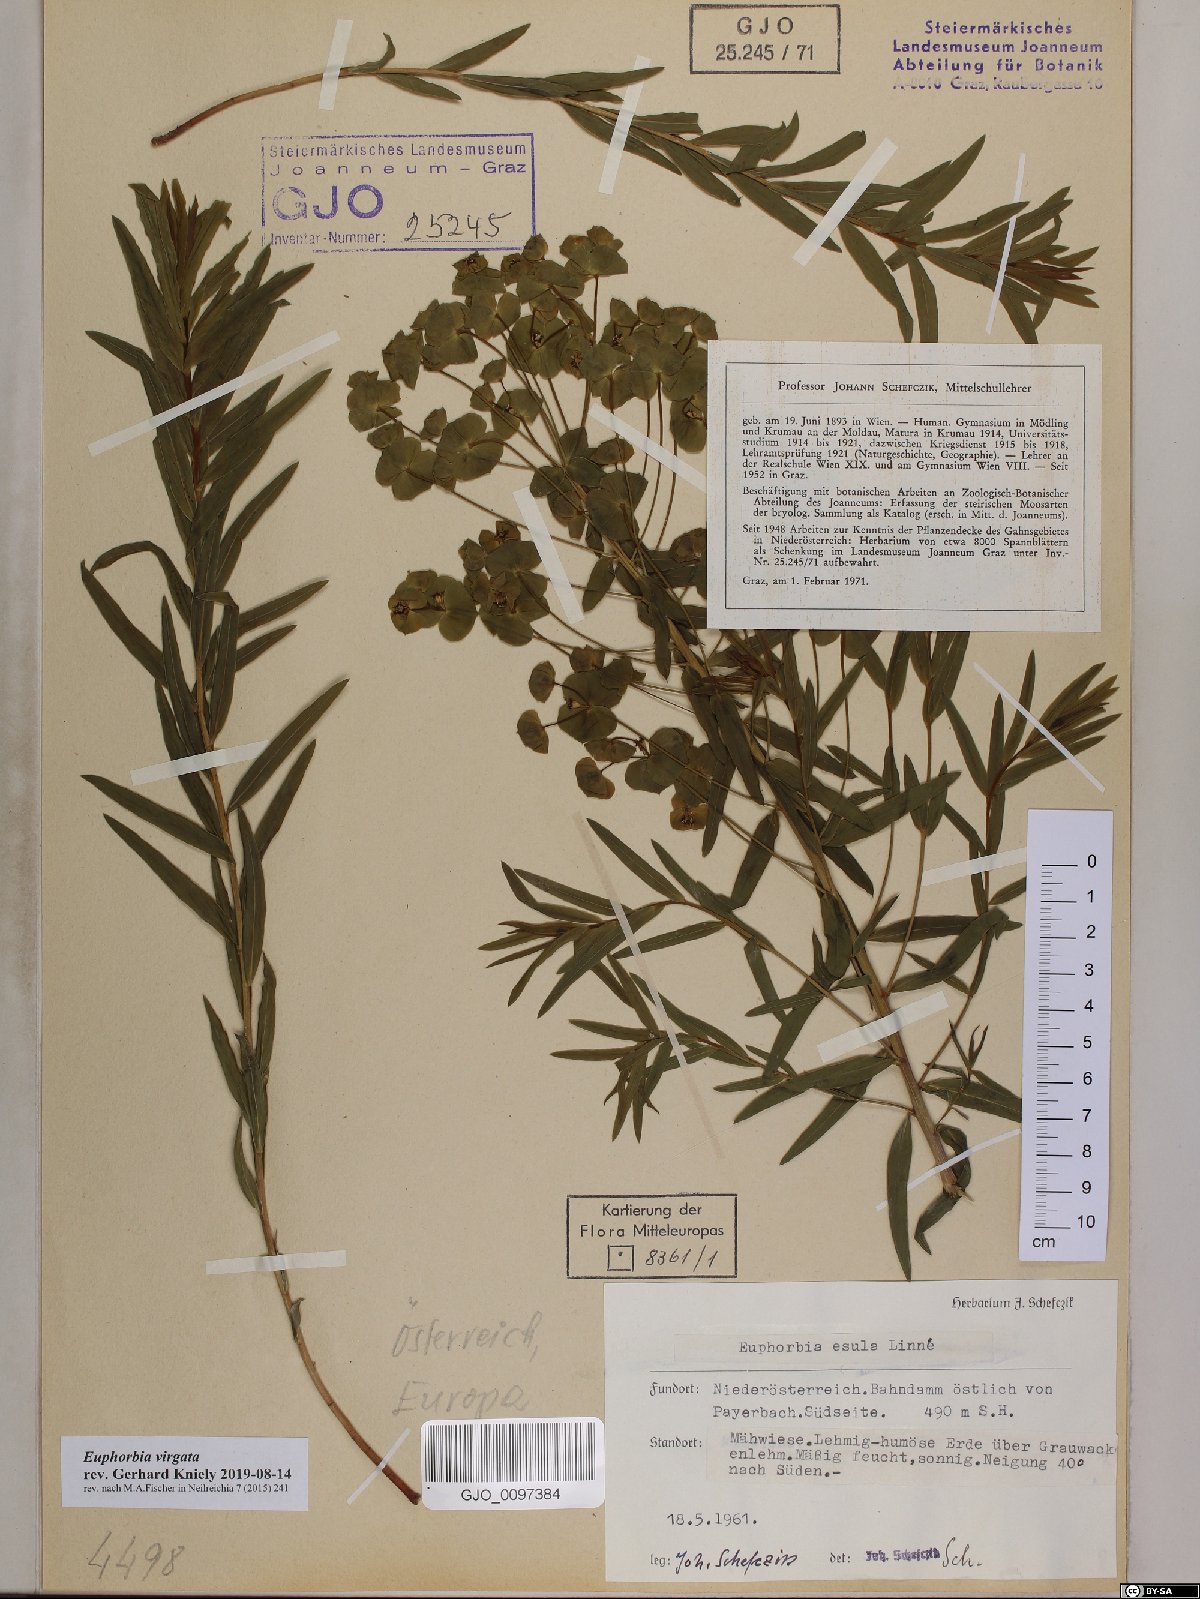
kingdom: Plantae
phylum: Tracheophyta
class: Magnoliopsida
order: Malpighiales
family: Euphorbiaceae
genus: Euphorbia
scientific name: Euphorbia virgata
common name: Leafy spurge
